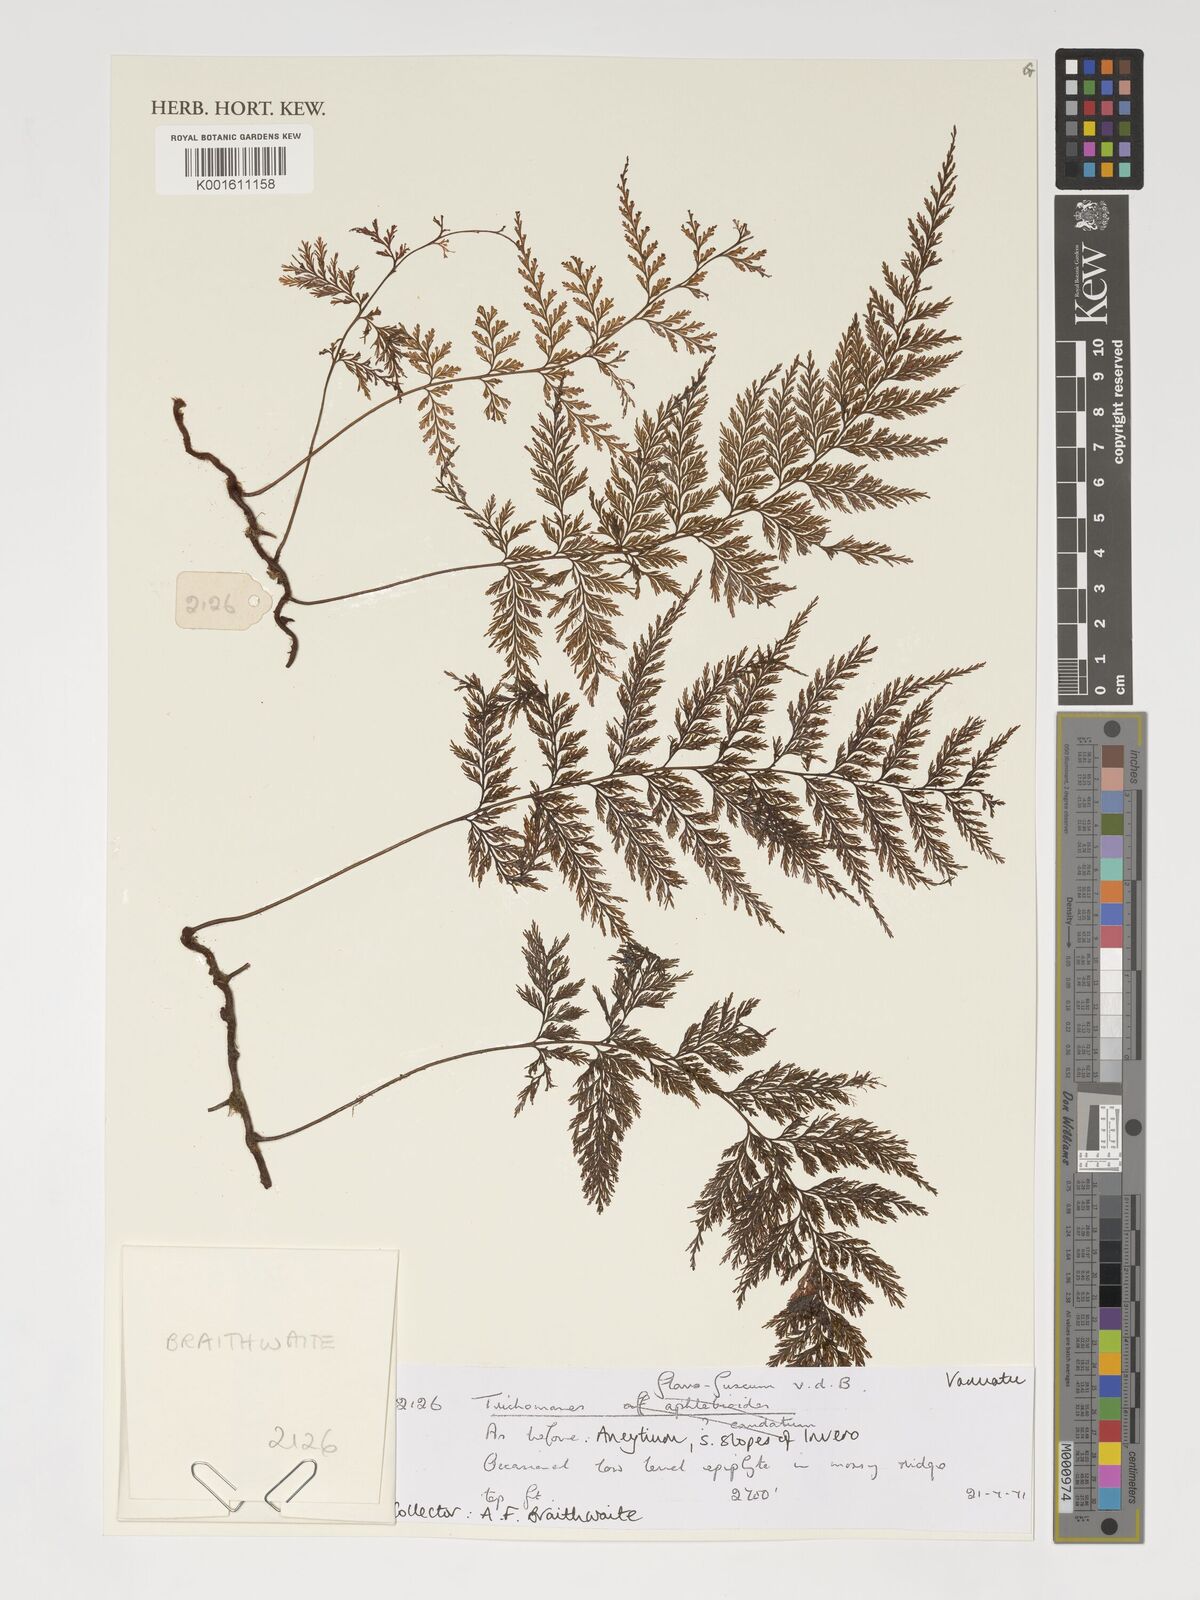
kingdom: Plantae
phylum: Tracheophyta
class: Polypodiopsida
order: Hymenophyllales
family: Hymenophyllaceae
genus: Abrodictyum
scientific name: Abrodictyum flavofuscum
